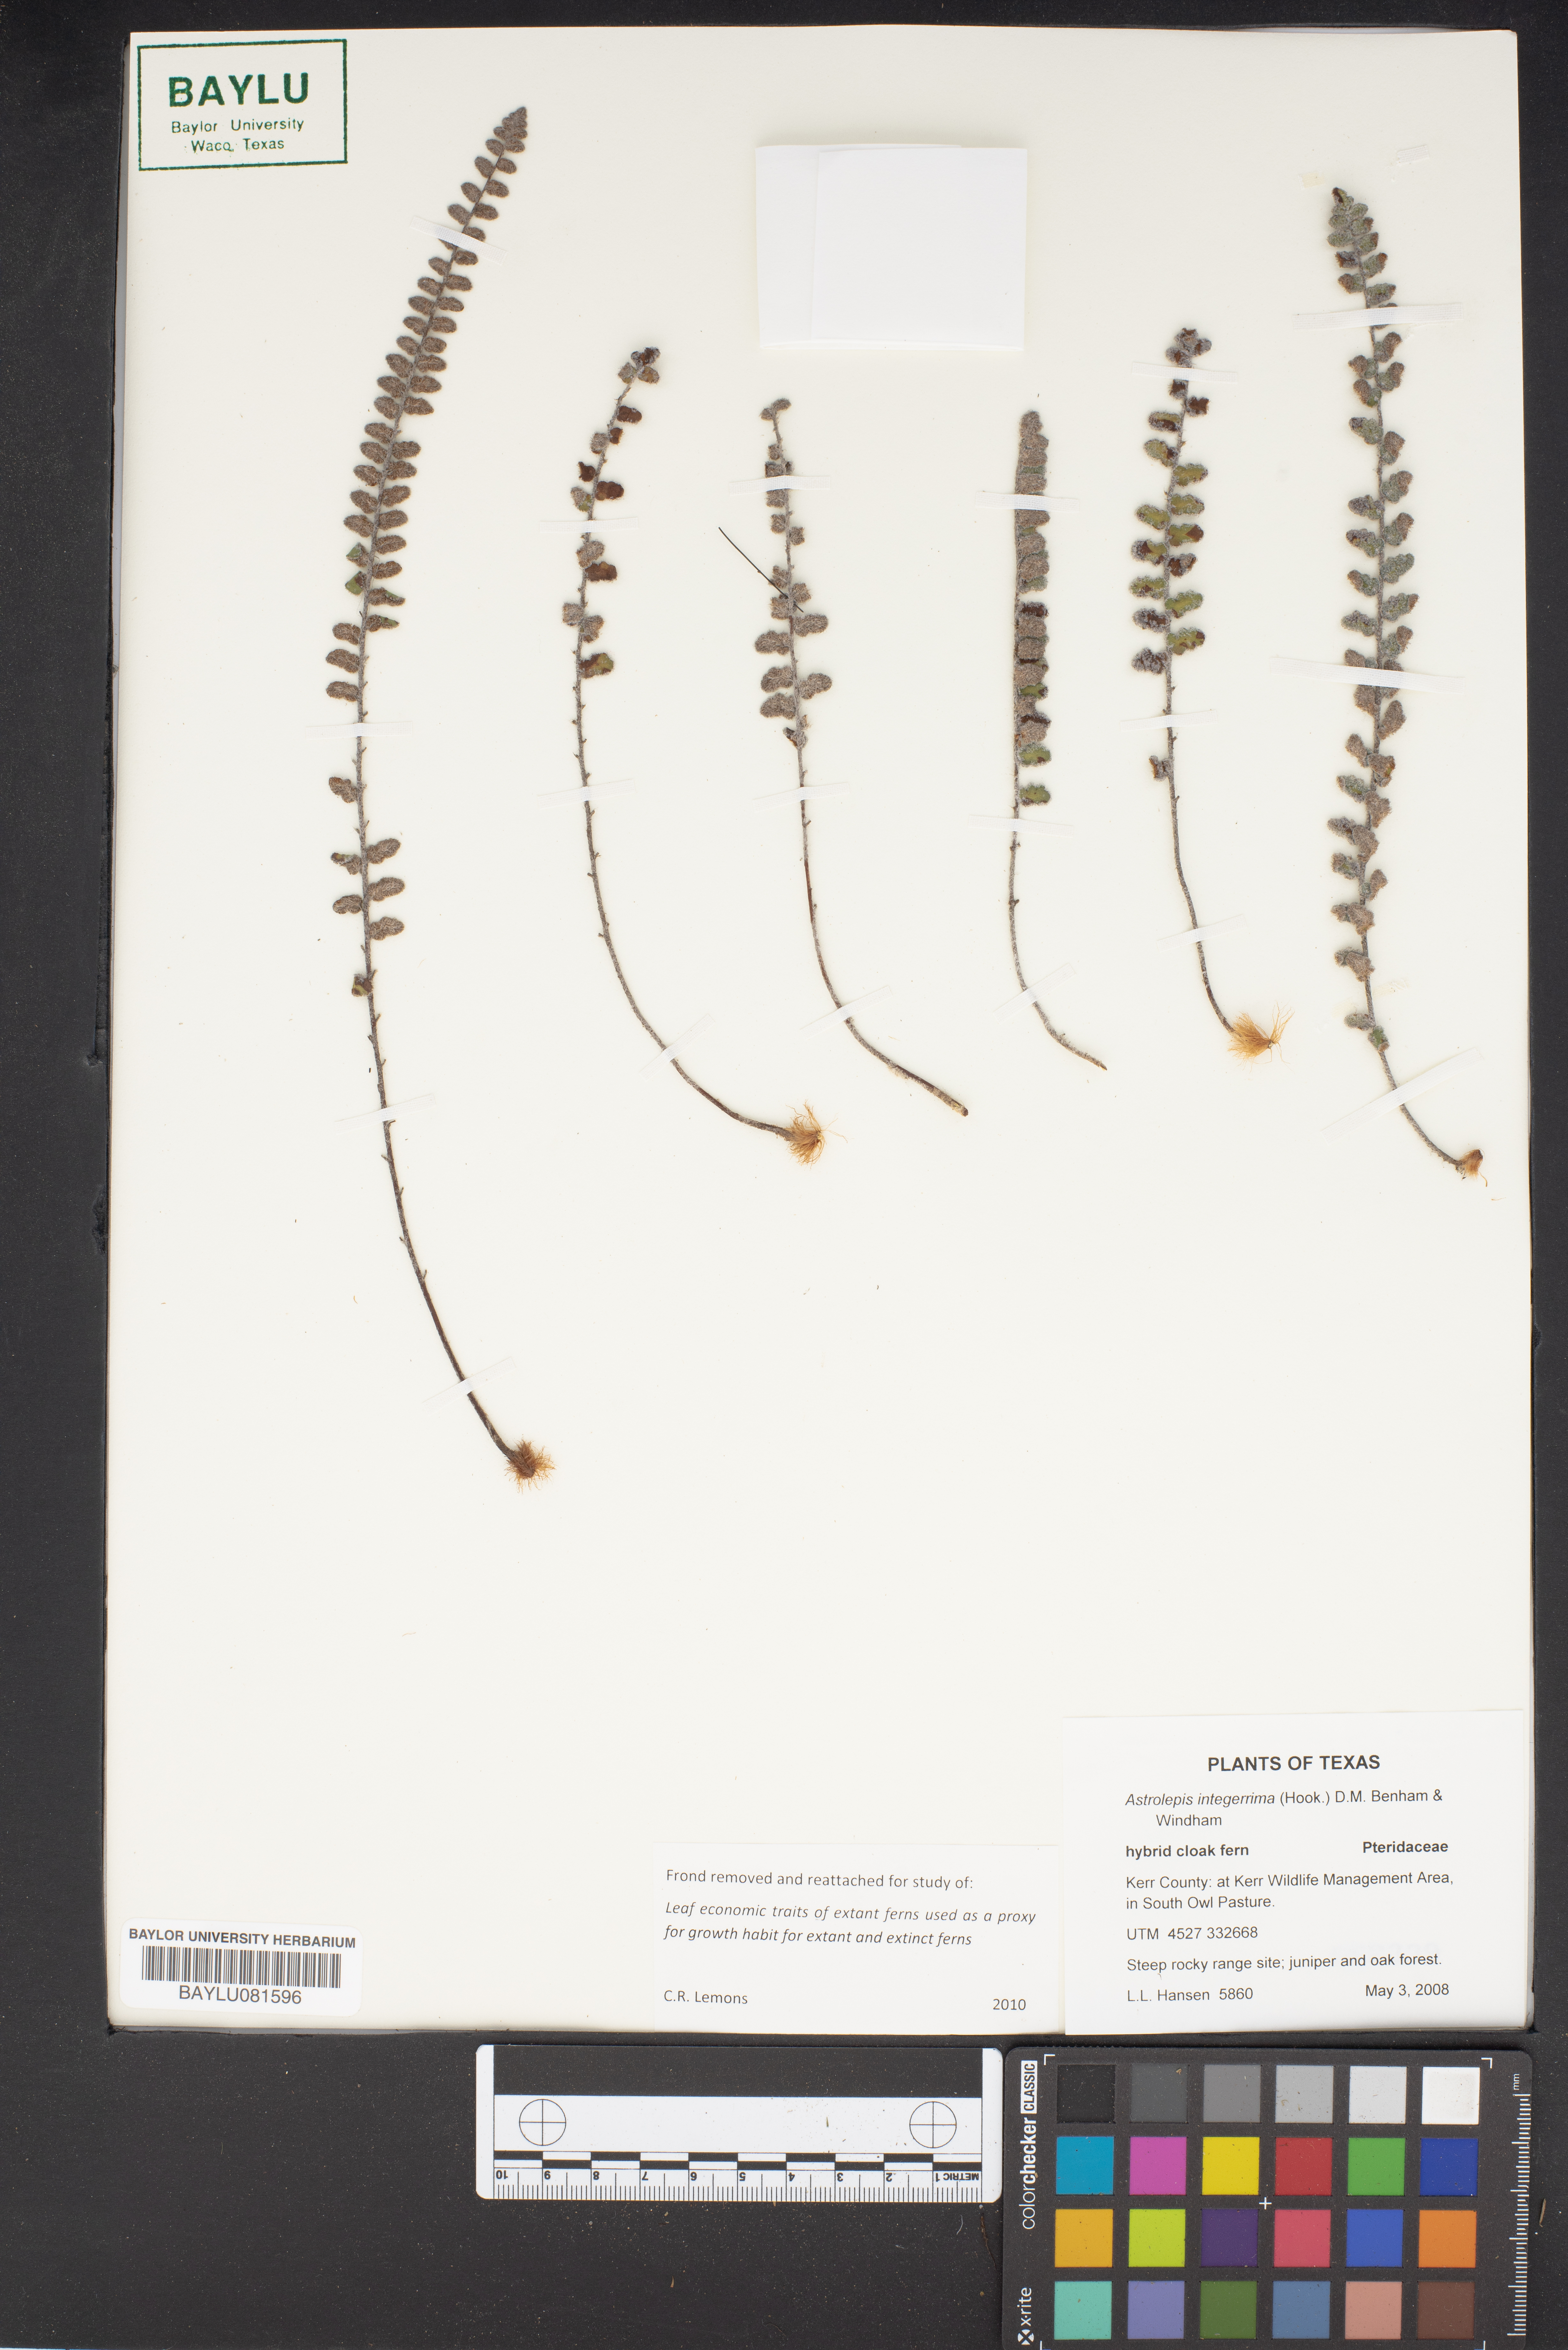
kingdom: Plantae
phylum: Tracheophyta
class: Polypodiopsida
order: Polypodiales
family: Pteridaceae
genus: Astrolepis
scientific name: Astrolepis integerrima
